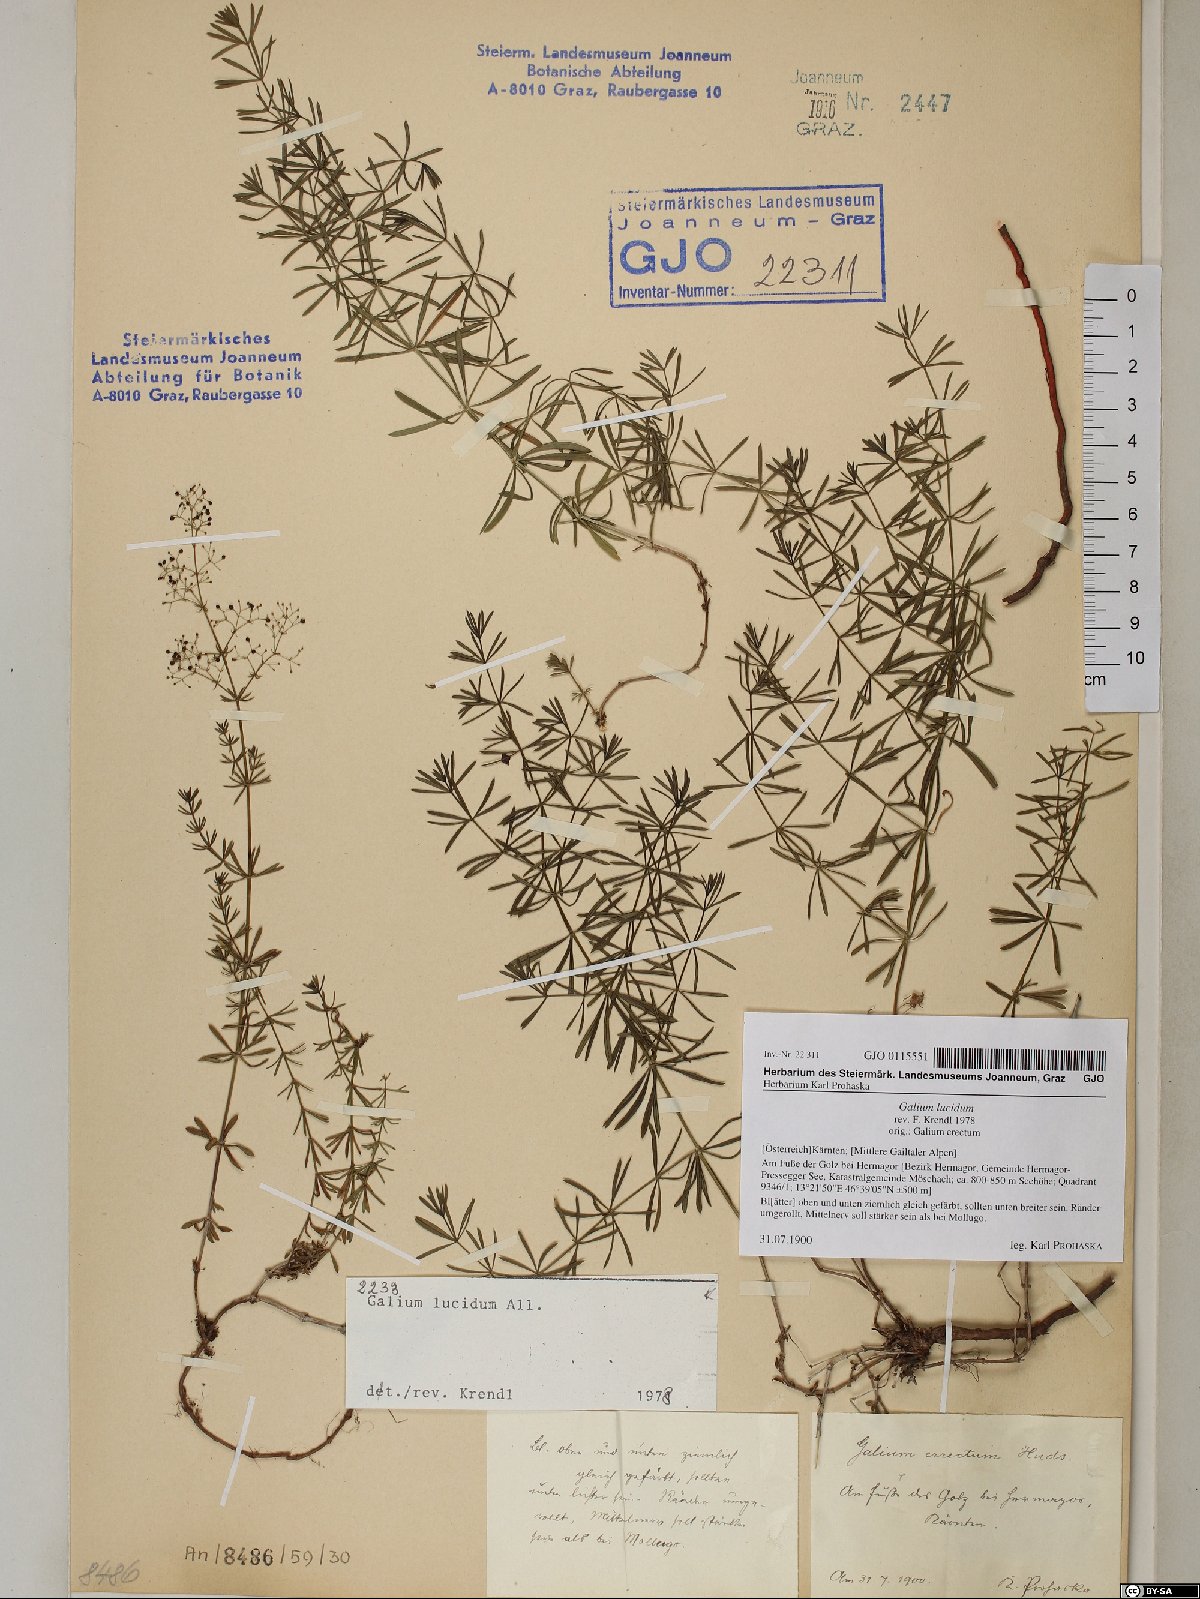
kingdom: Plantae
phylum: Tracheophyta
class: Magnoliopsida
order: Gentianales
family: Rubiaceae
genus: Galium
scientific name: Galium lucidum
